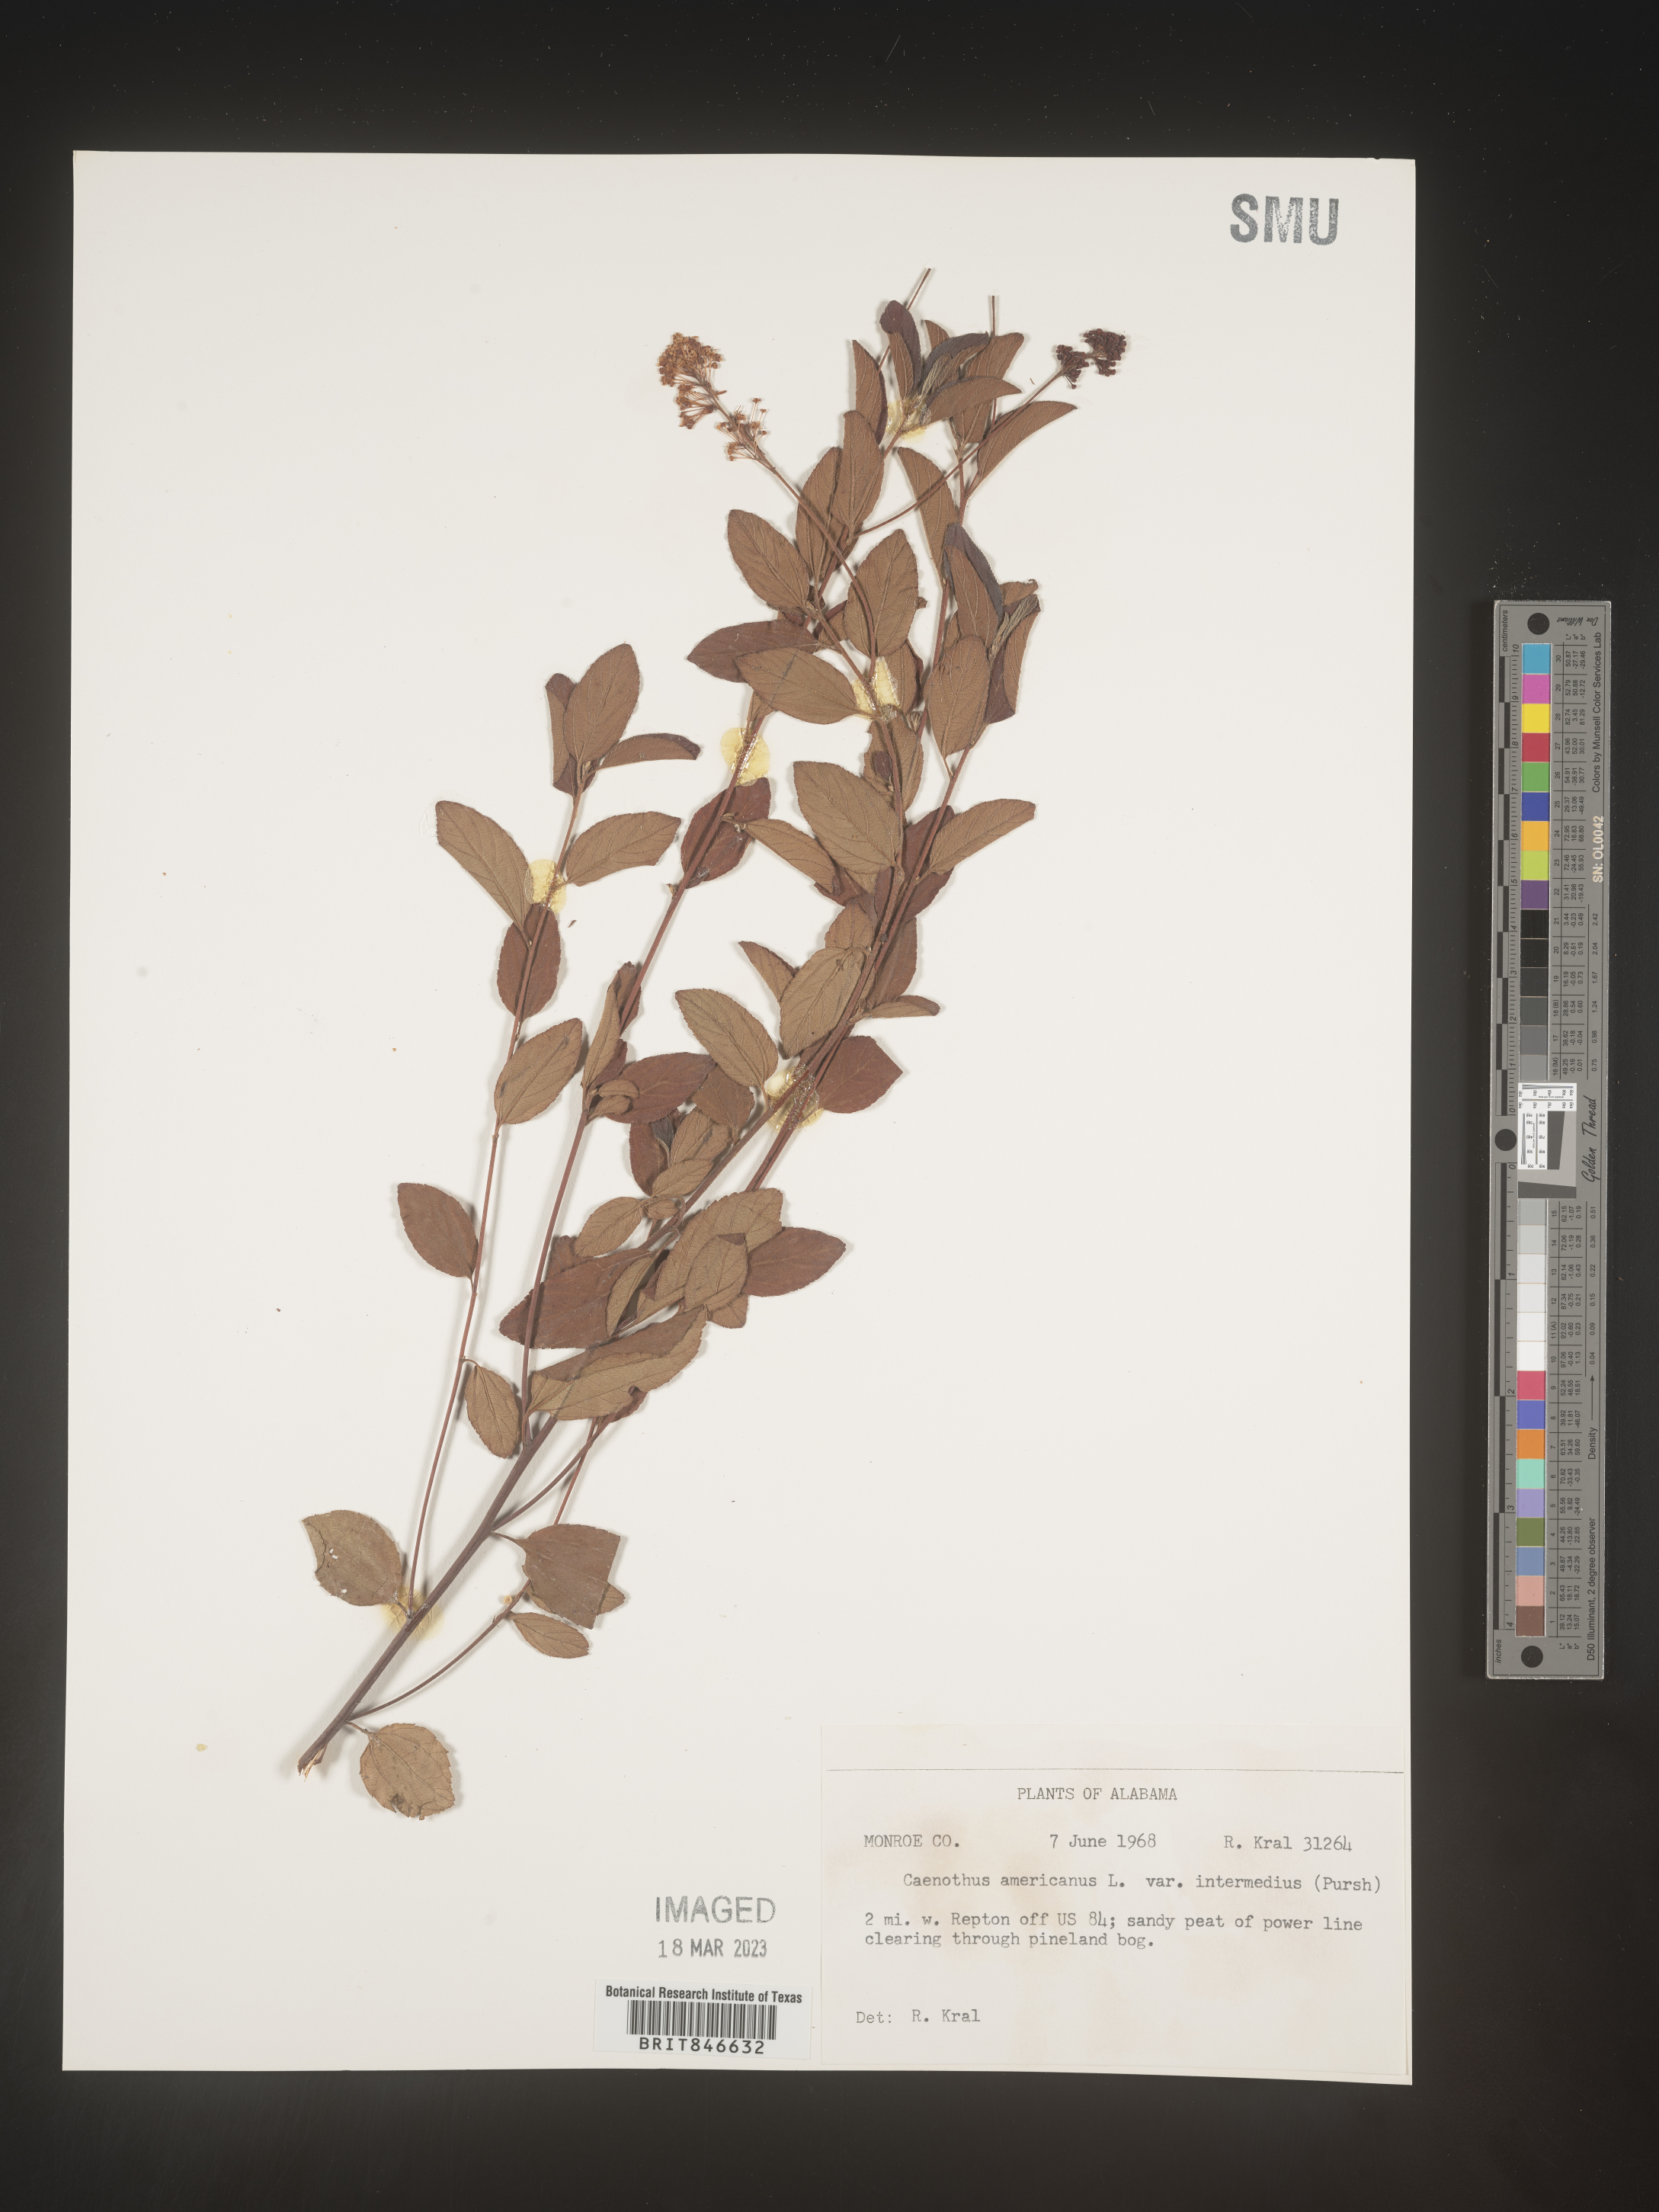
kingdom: Plantae
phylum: Tracheophyta
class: Magnoliopsida
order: Rosales
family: Rhamnaceae
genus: Ceanothus
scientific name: Ceanothus americanus
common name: Redroot
